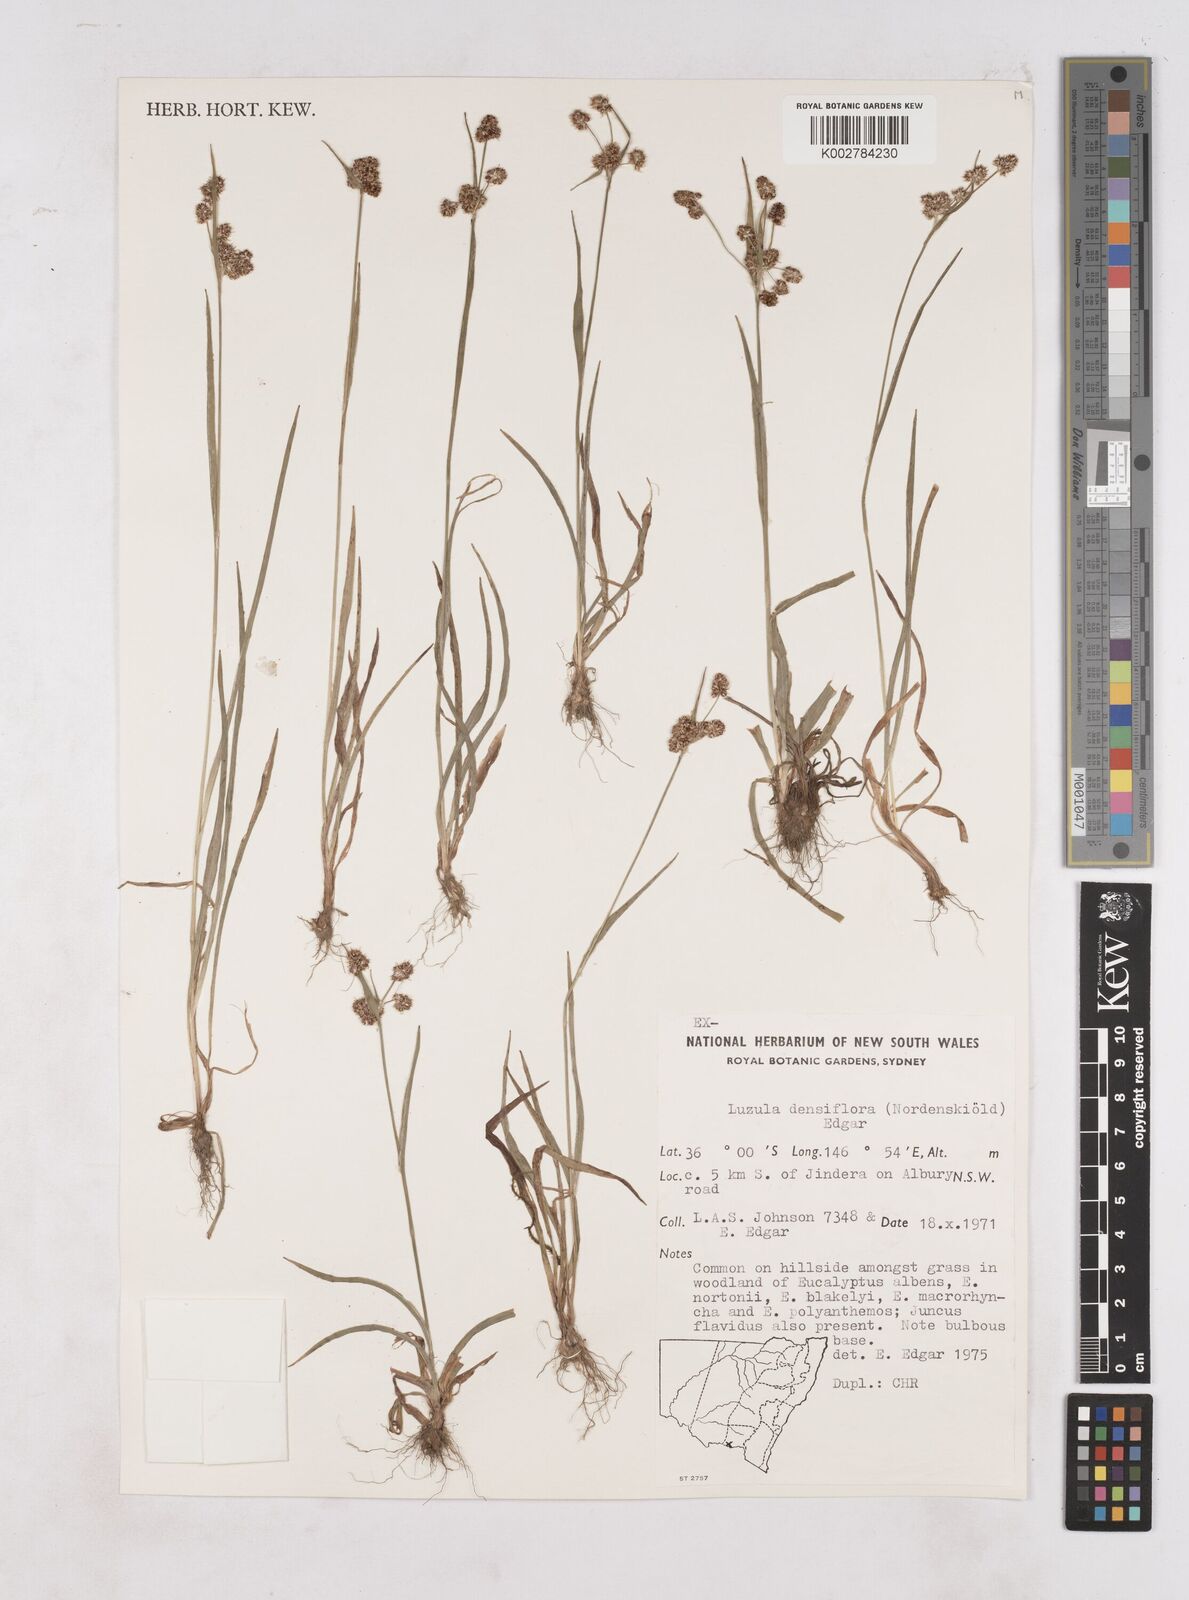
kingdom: Plantae
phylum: Tracheophyta
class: Liliopsida
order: Poales
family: Juncaceae
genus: Luzula
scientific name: Luzula densiflora
